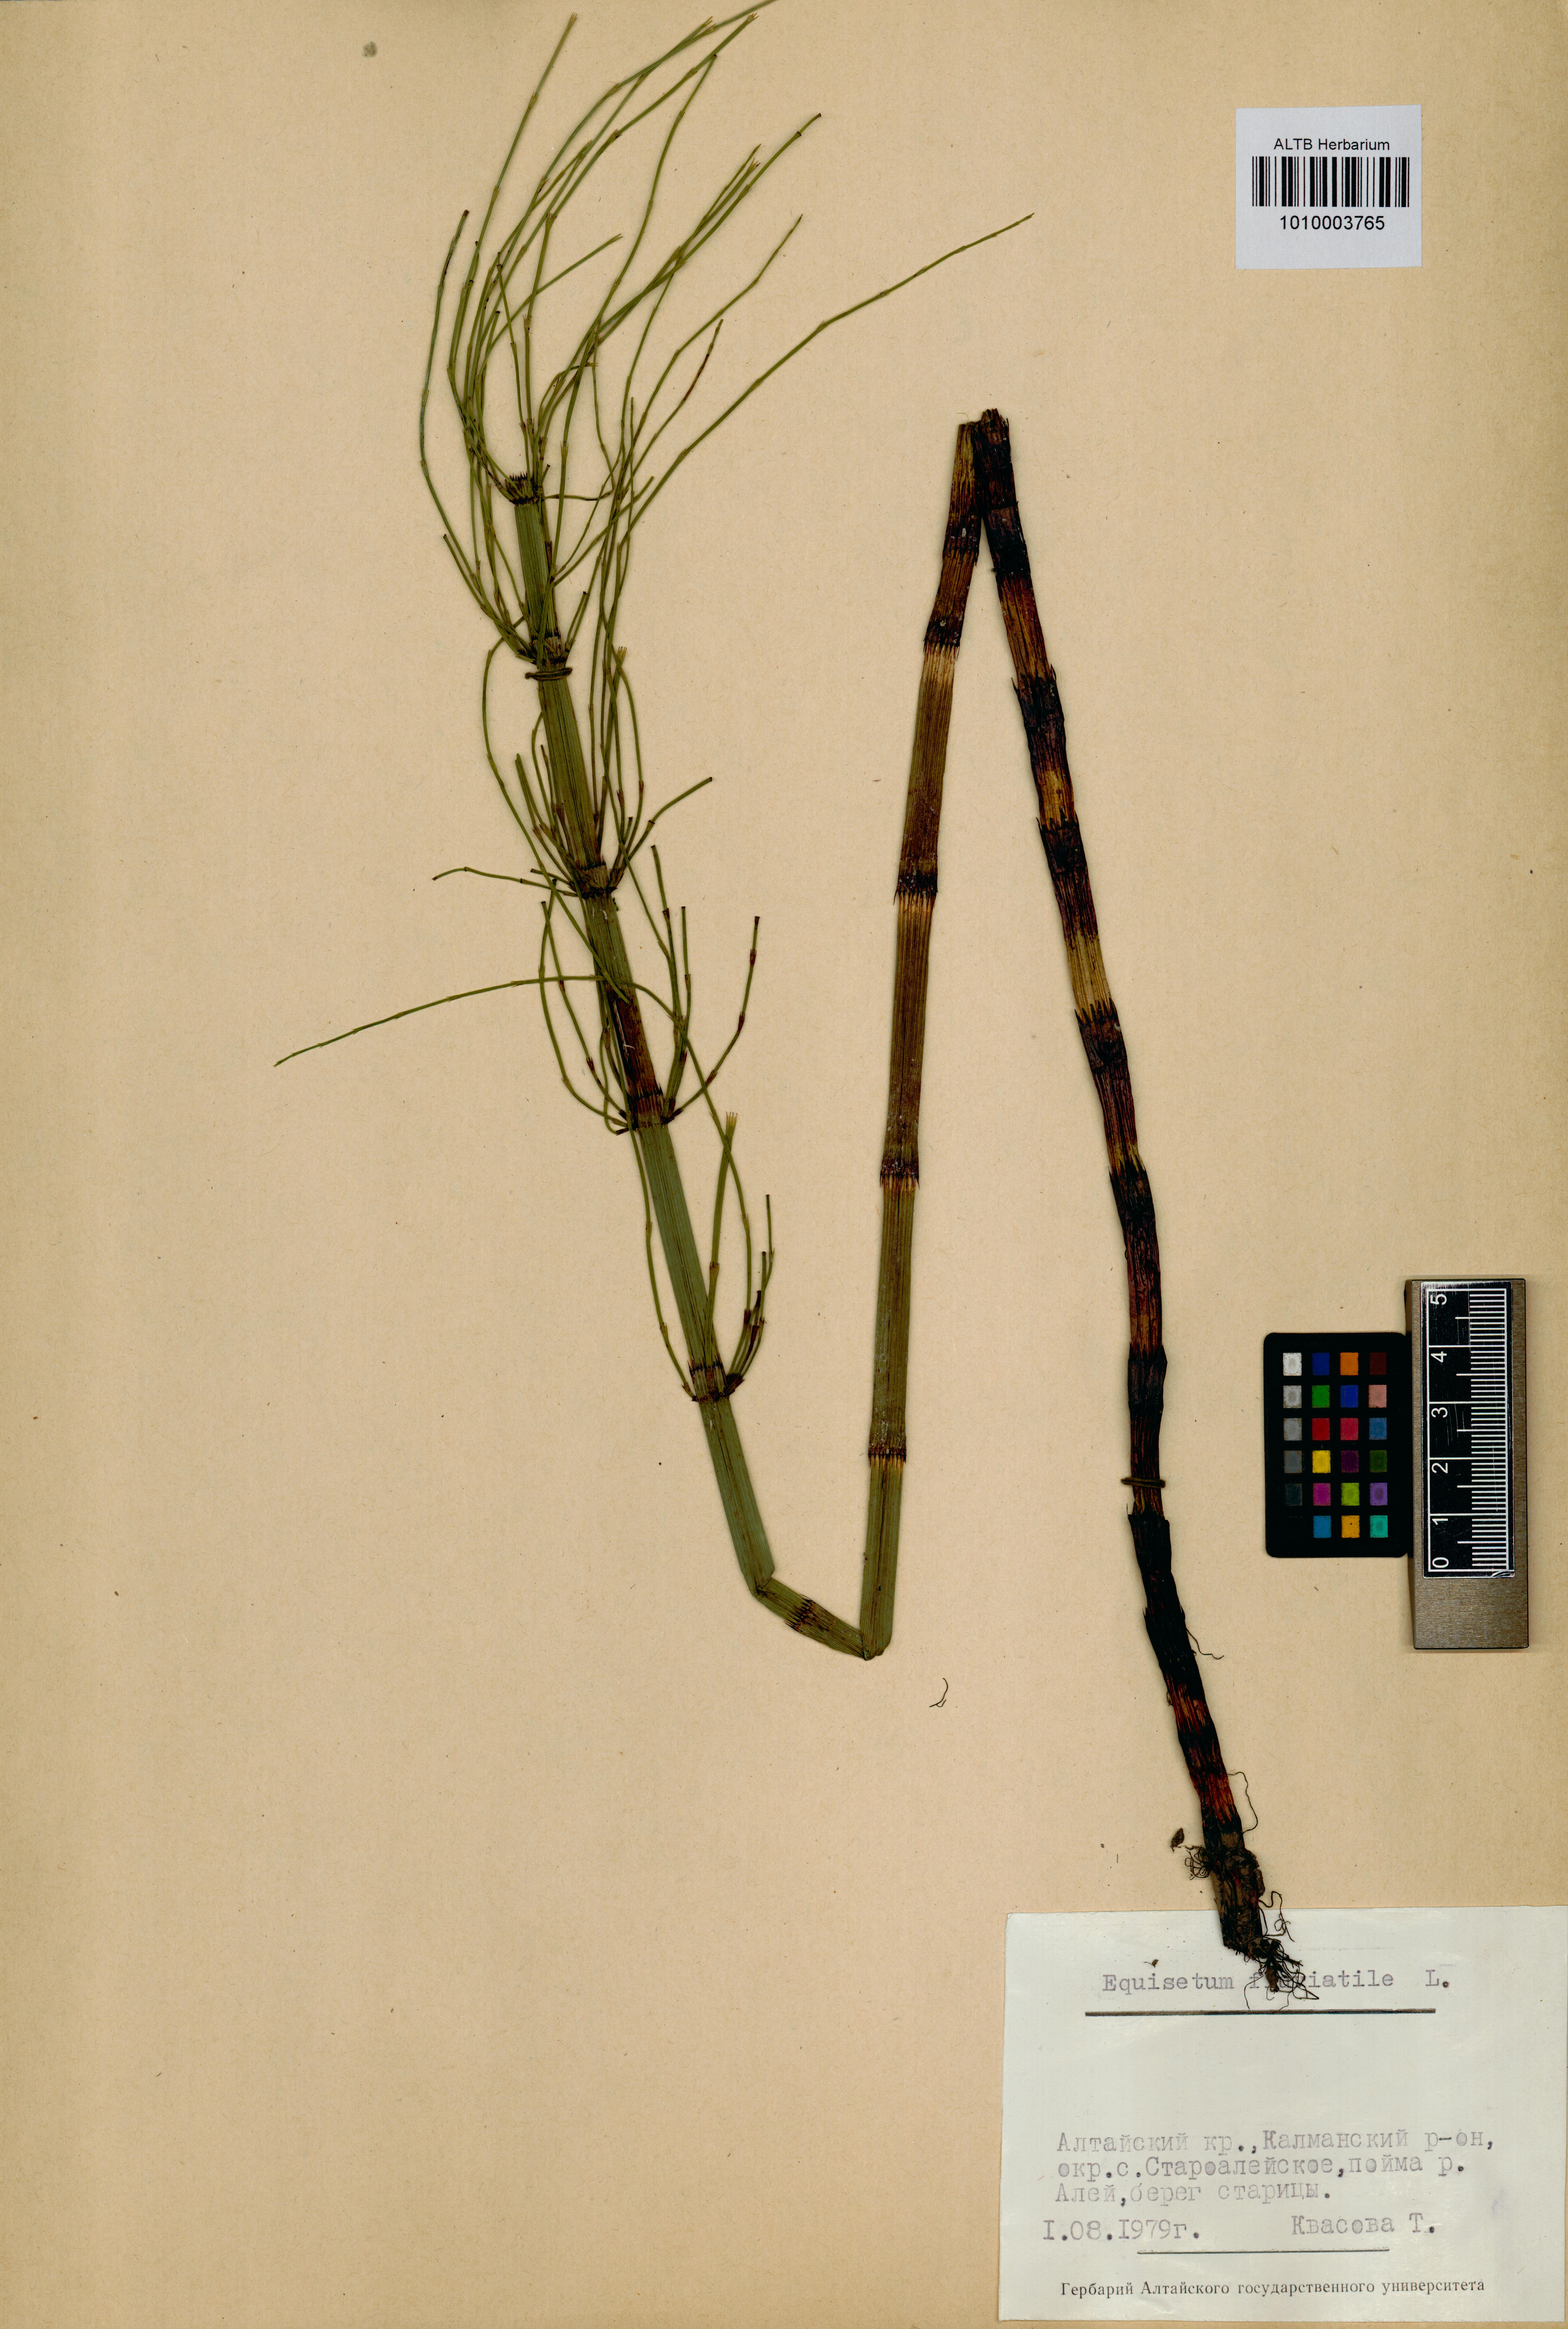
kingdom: Plantae
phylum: Tracheophyta
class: Polypodiopsida
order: Equisetales
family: Equisetaceae
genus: Equisetum
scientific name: Equisetum fluviatile
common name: Water horsetail
